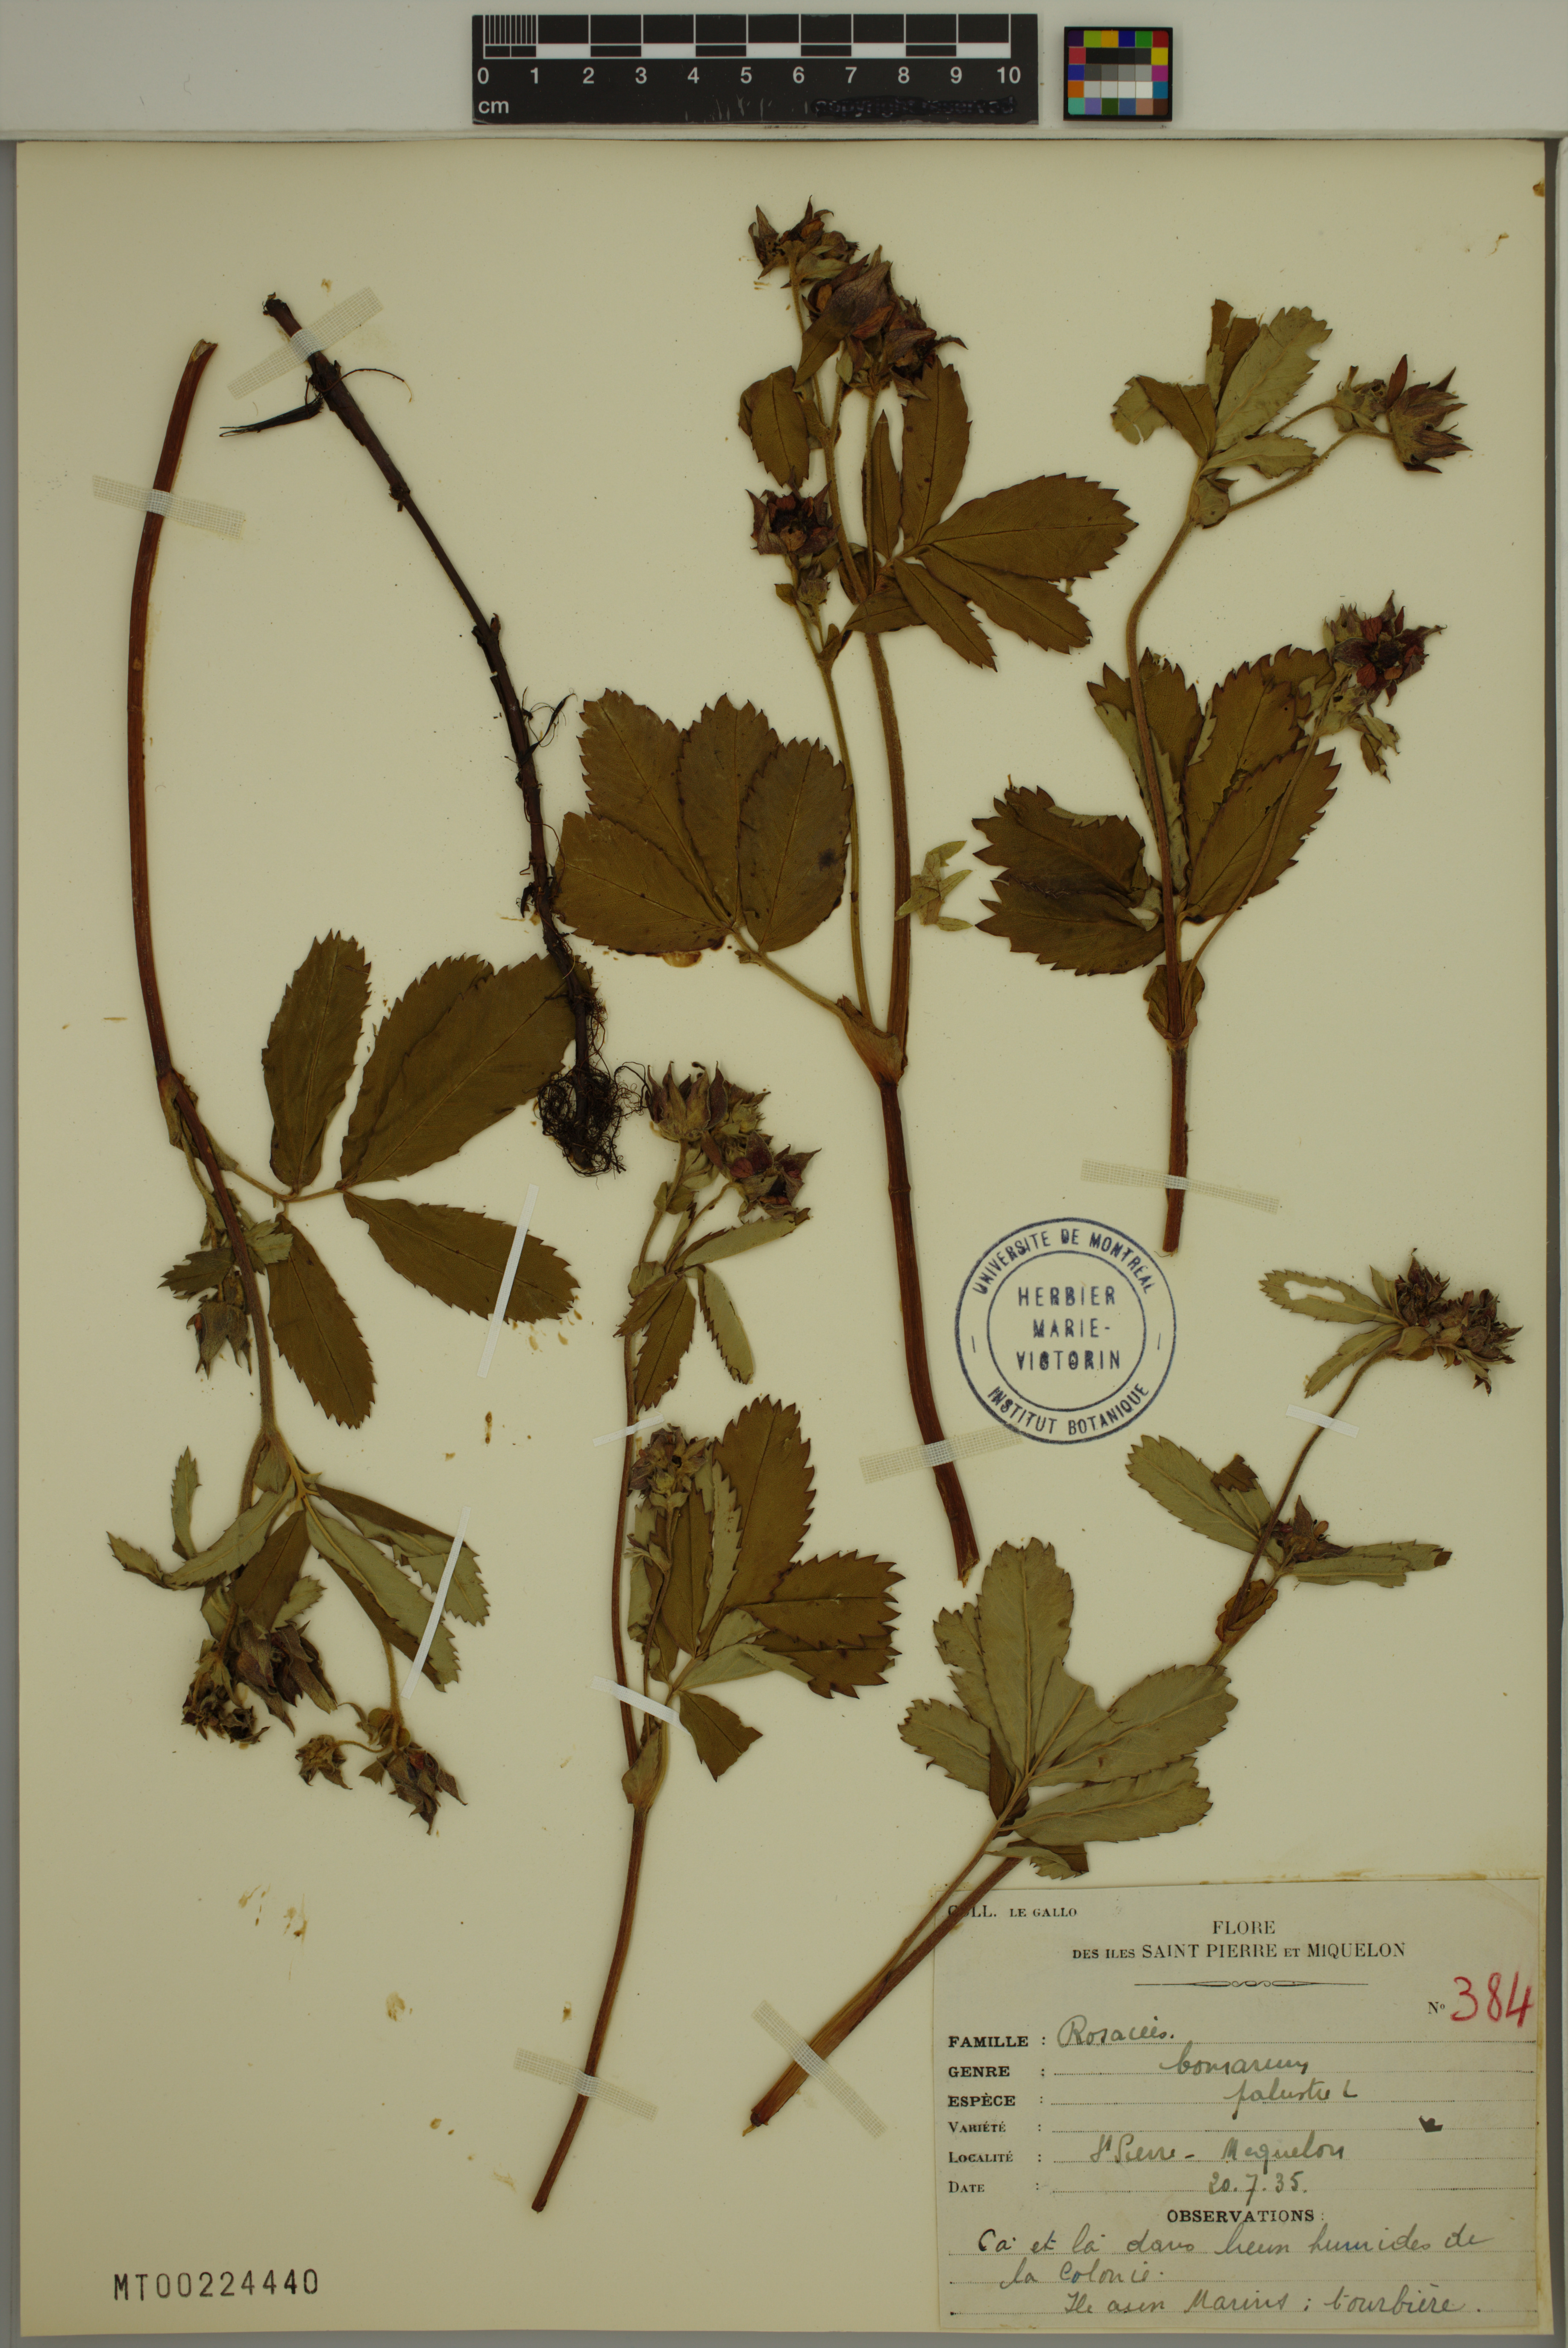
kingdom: Plantae
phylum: Tracheophyta
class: Magnoliopsida
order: Rosales
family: Rosaceae
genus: Comarum
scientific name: Comarum palustre
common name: Marsh cinquefoil
